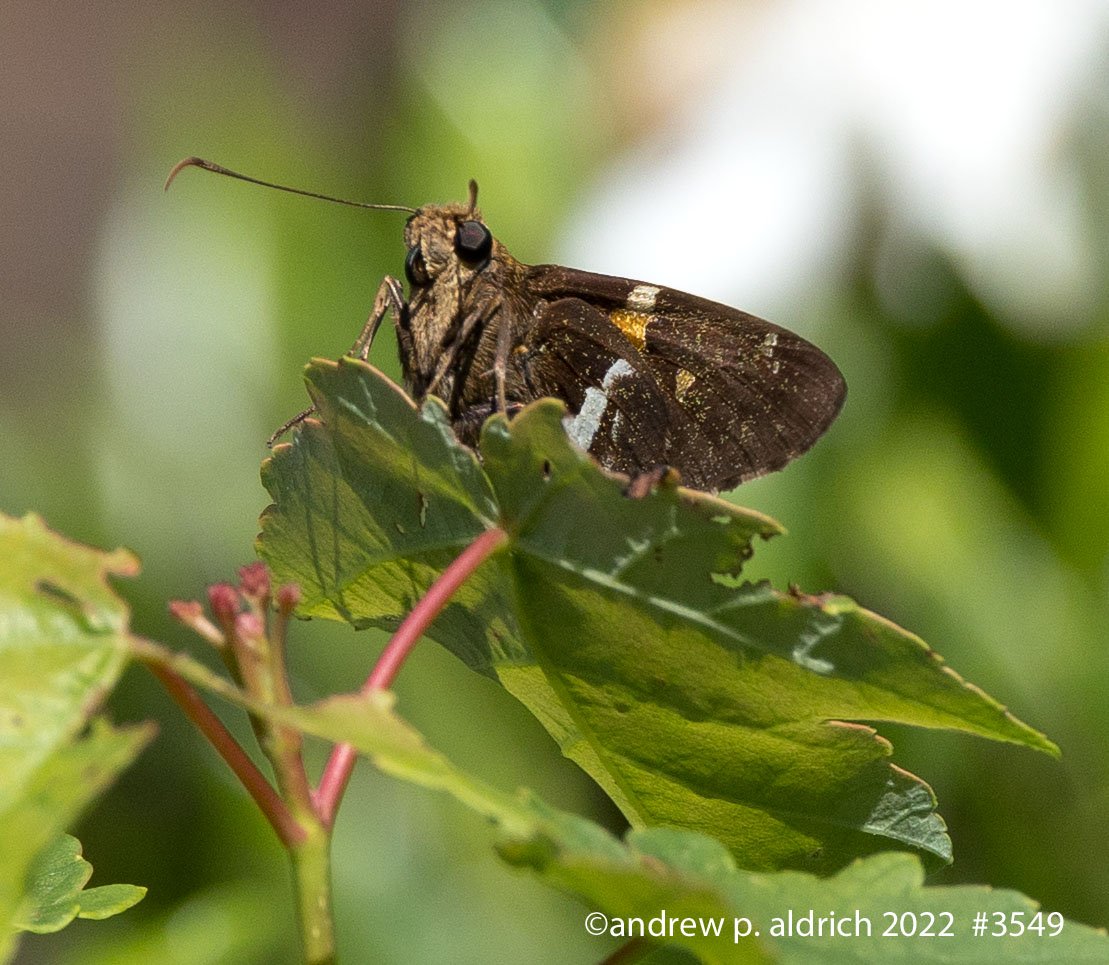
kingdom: Animalia
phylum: Arthropoda
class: Insecta
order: Lepidoptera
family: Hesperiidae
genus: Epargyreus
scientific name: Epargyreus clarus
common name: Silver-spotted Skipper
